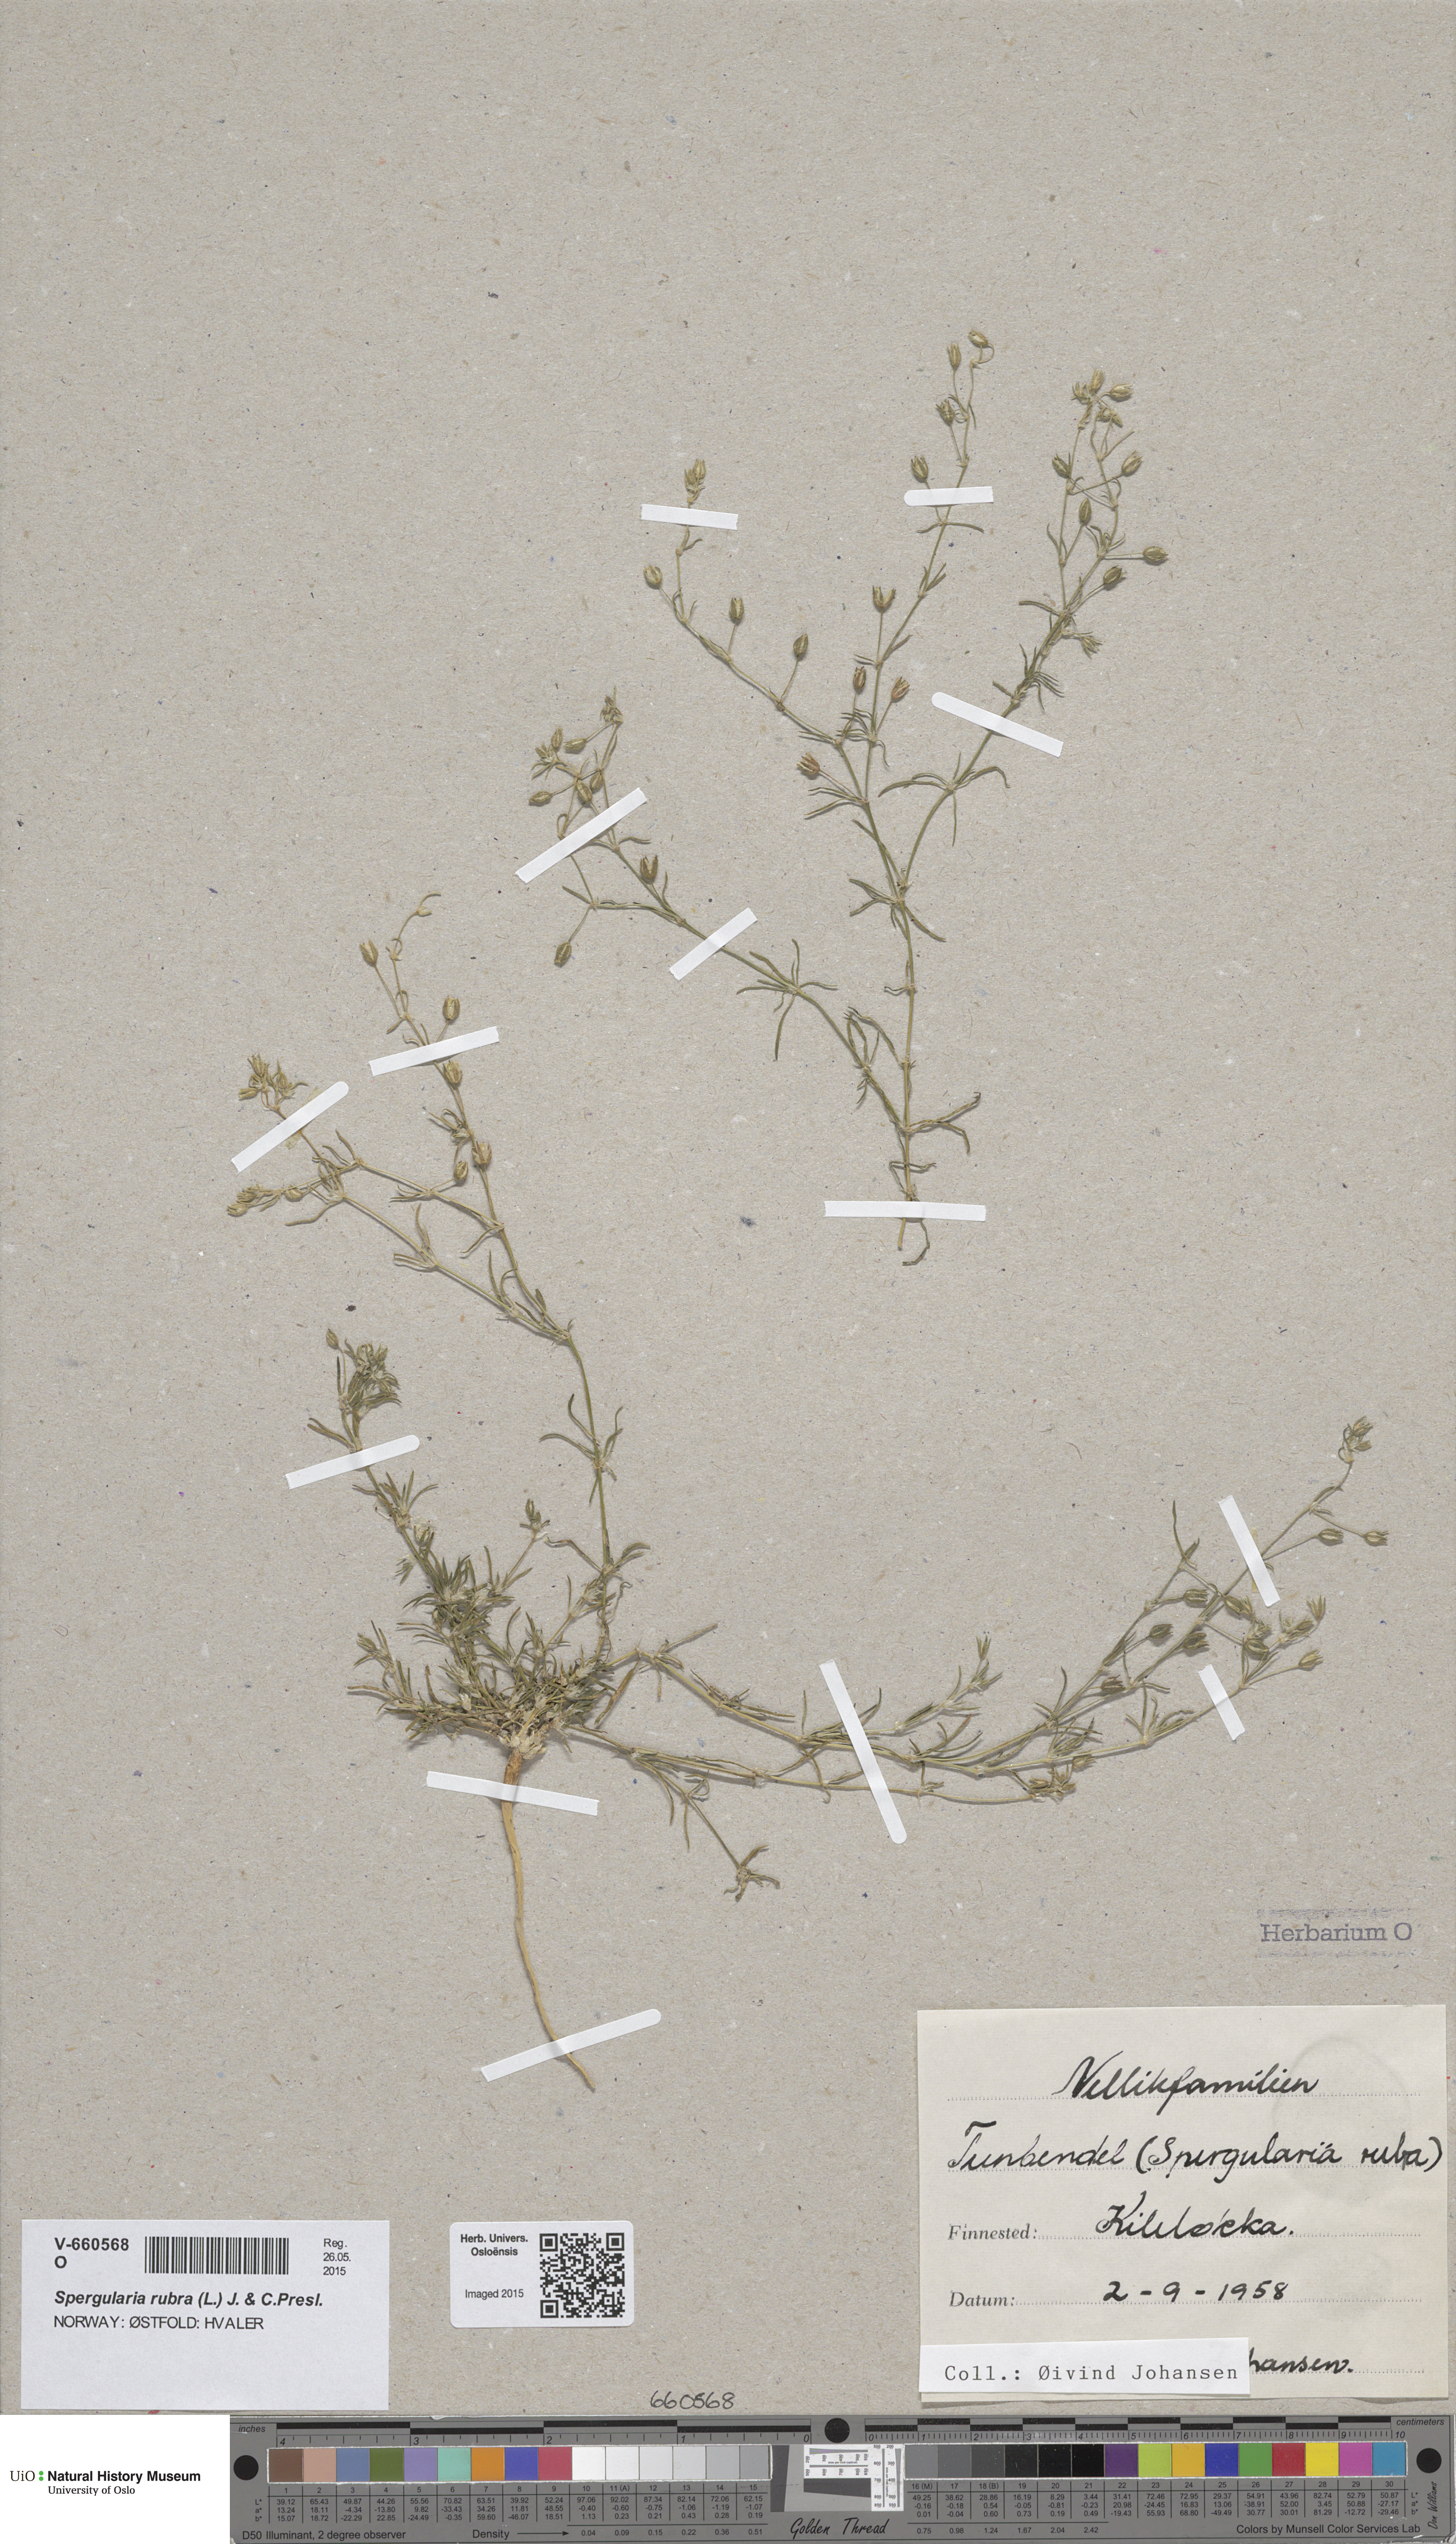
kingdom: Plantae
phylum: Tracheophyta
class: Magnoliopsida
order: Caryophyllales
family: Caryophyllaceae
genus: Spergularia
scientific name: Spergularia rubra
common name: Red sand-spurrey
